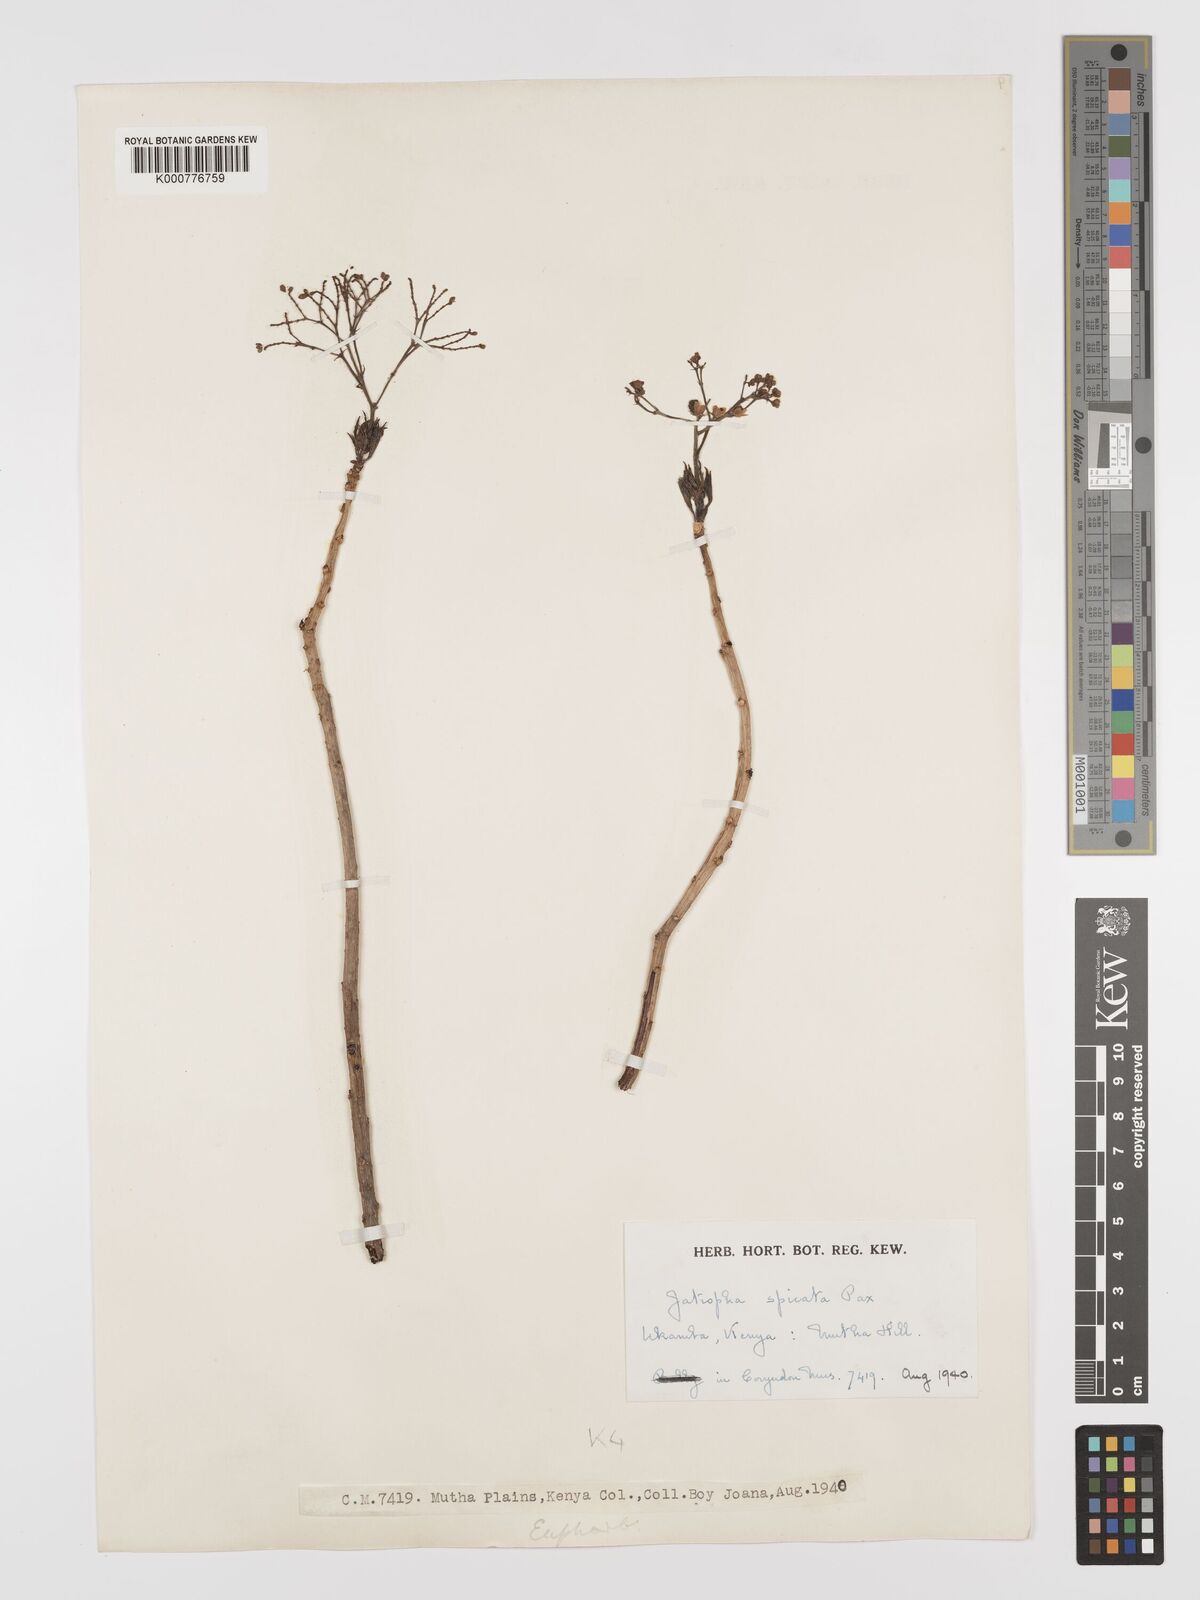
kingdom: Plantae
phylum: Tracheophyta
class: Magnoliopsida
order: Malpighiales
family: Euphorbiaceae
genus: Jatropha
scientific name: Jatropha spicata
